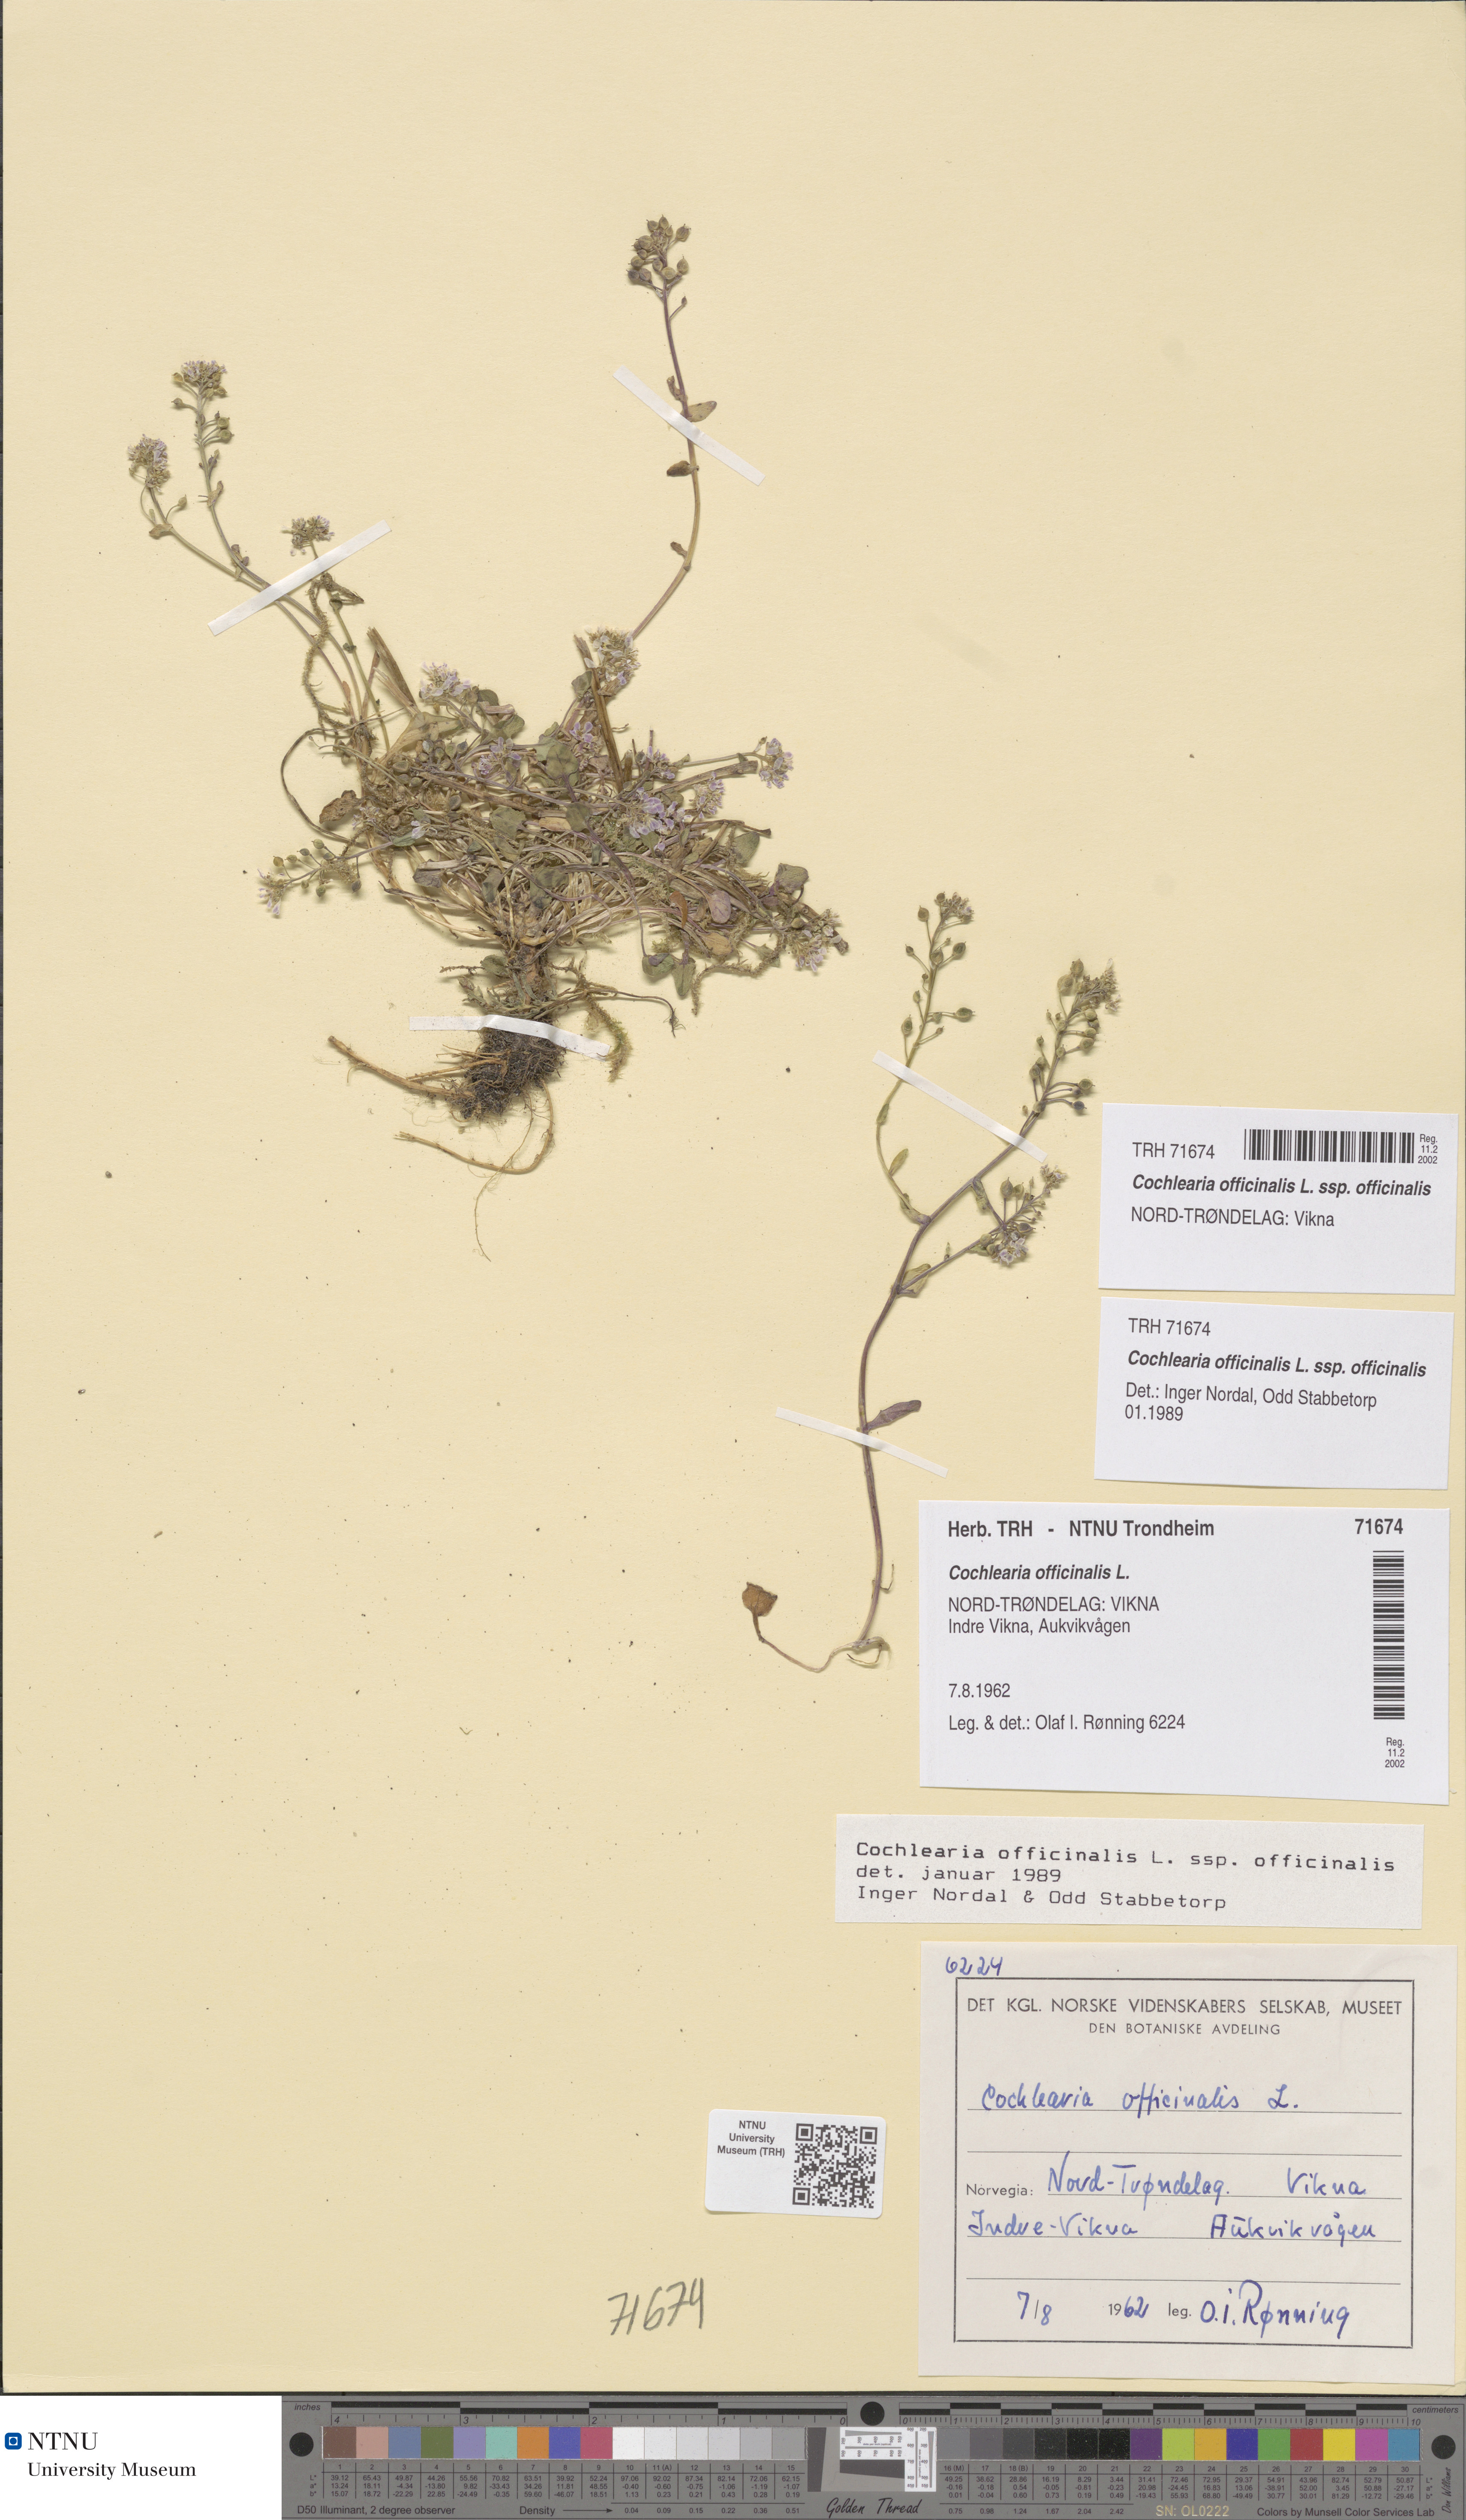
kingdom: Plantae
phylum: Tracheophyta
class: Magnoliopsida
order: Brassicales
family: Brassicaceae
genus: Cochlearia
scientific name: Cochlearia officinalis
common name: Scurvy-grass
